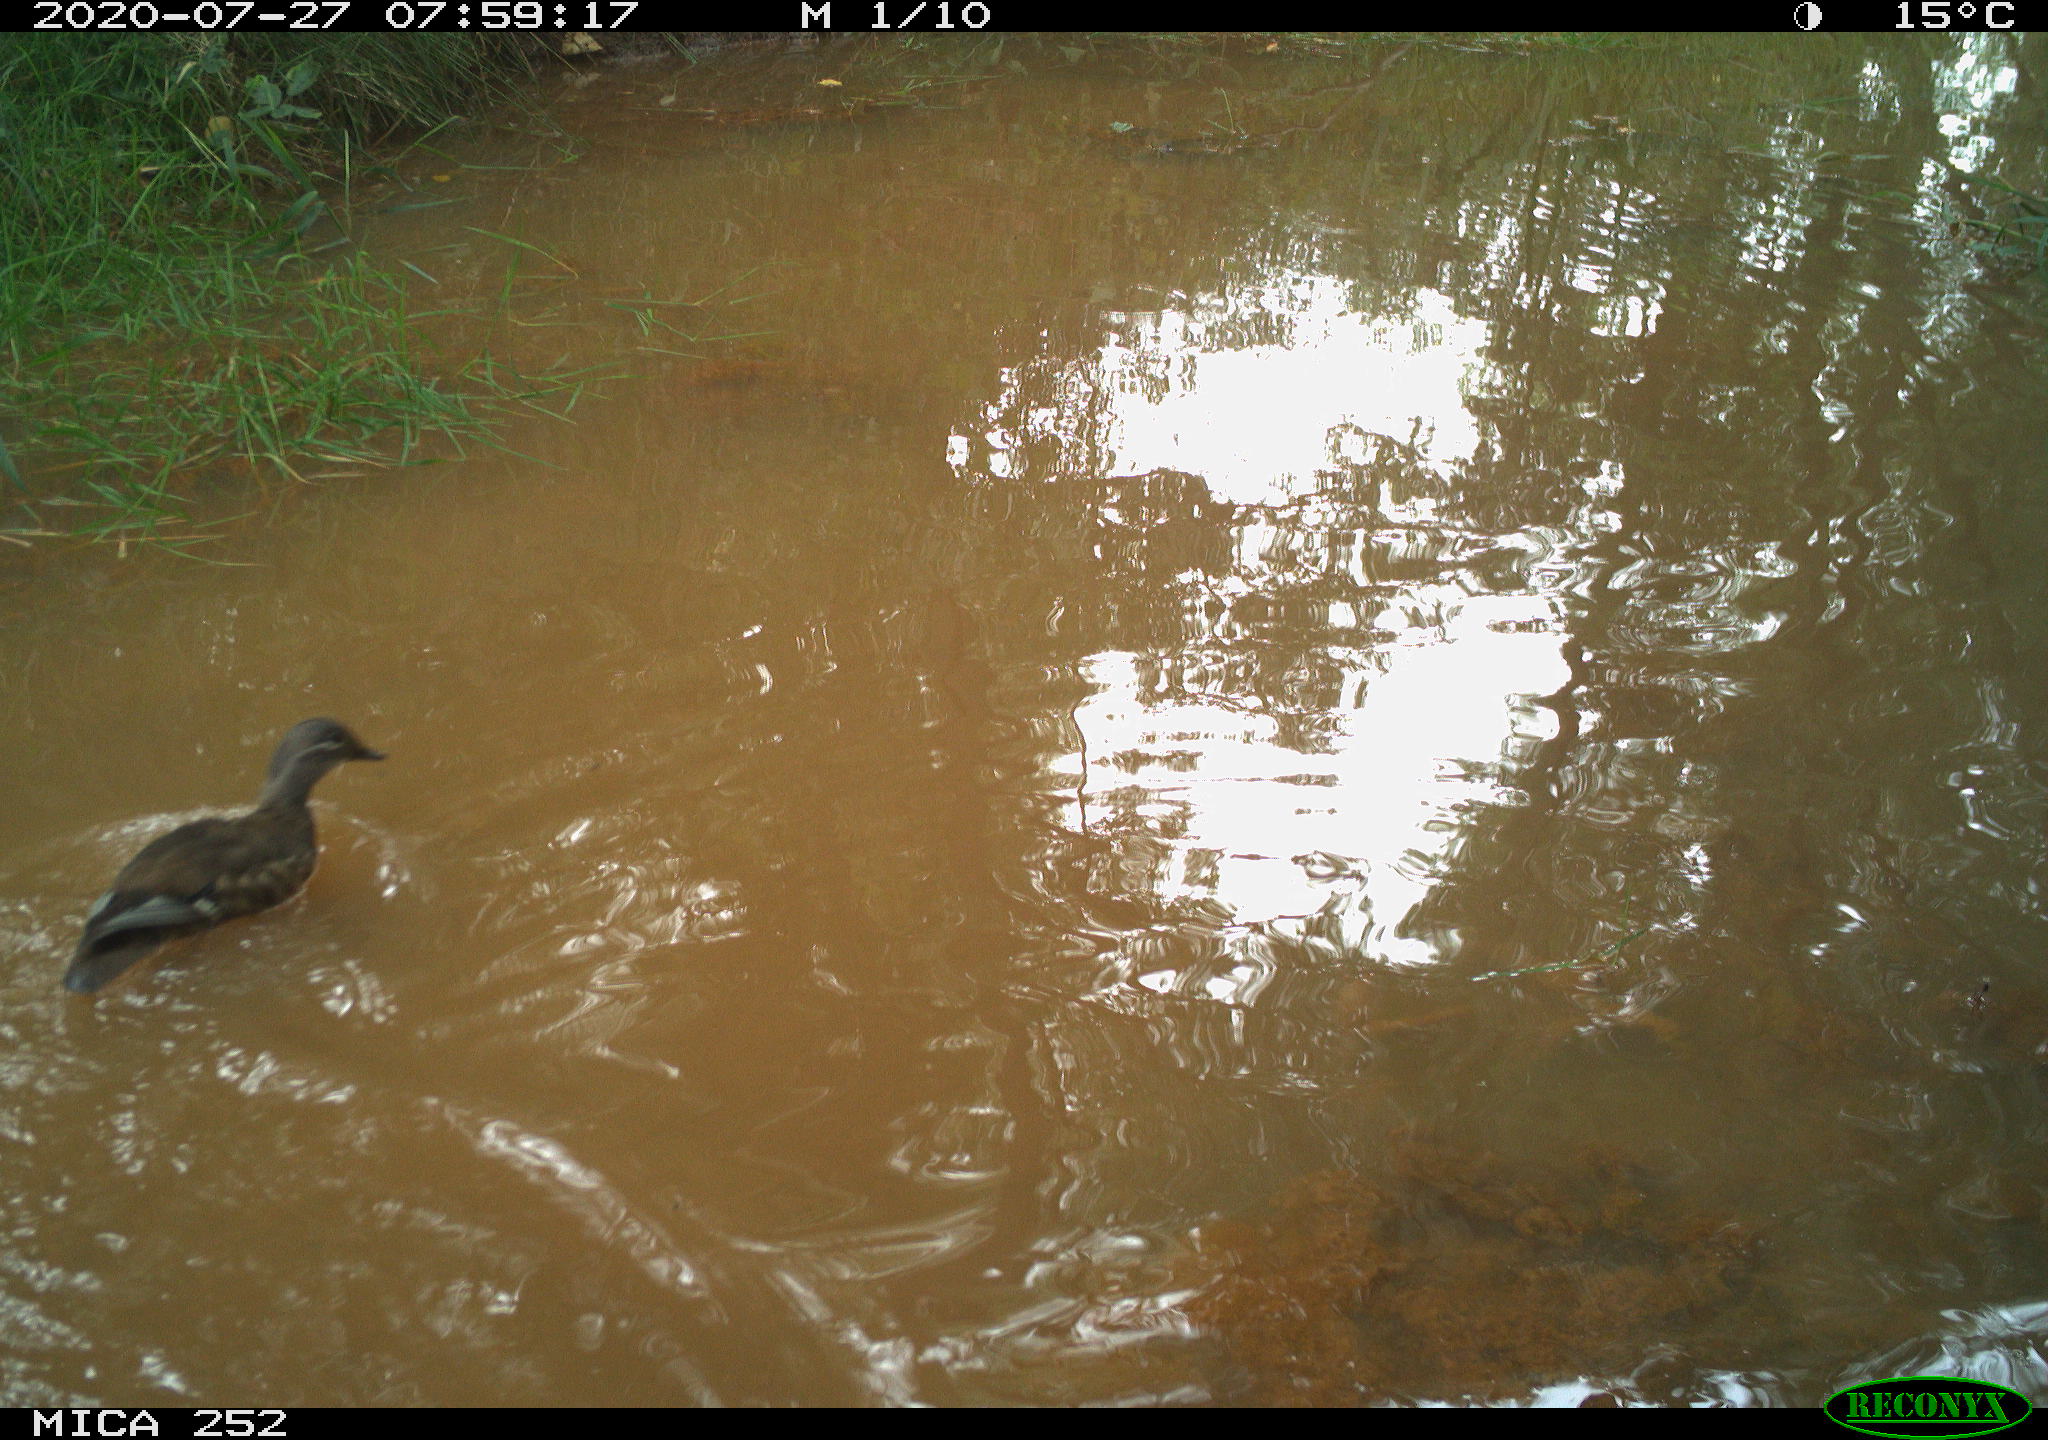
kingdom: Animalia
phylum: Chordata
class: Aves
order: Anseriformes
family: Anatidae
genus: Aix
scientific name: Aix galericulata
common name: Mandarin duck
